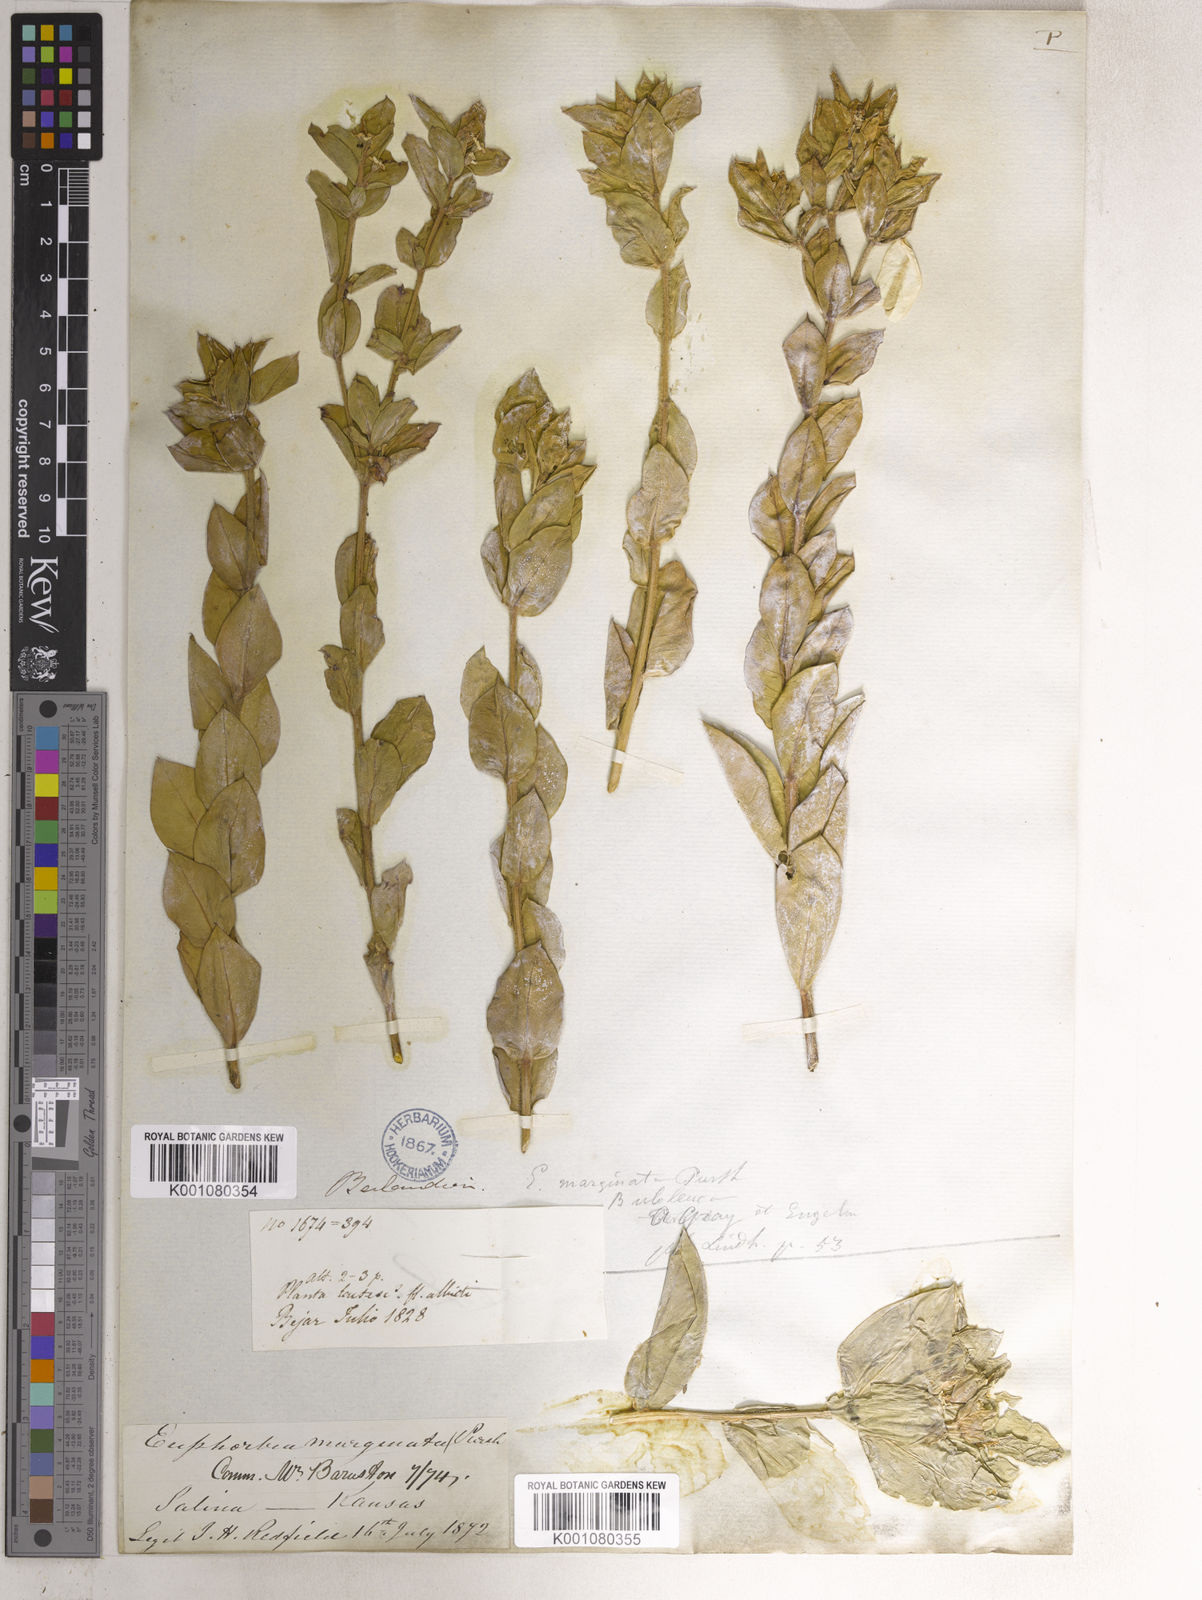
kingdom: Plantae
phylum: Tracheophyta
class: Magnoliopsida
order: Malpighiales
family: Euphorbiaceae
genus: Euphorbia
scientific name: Euphorbia marginata
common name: Ghostweed
